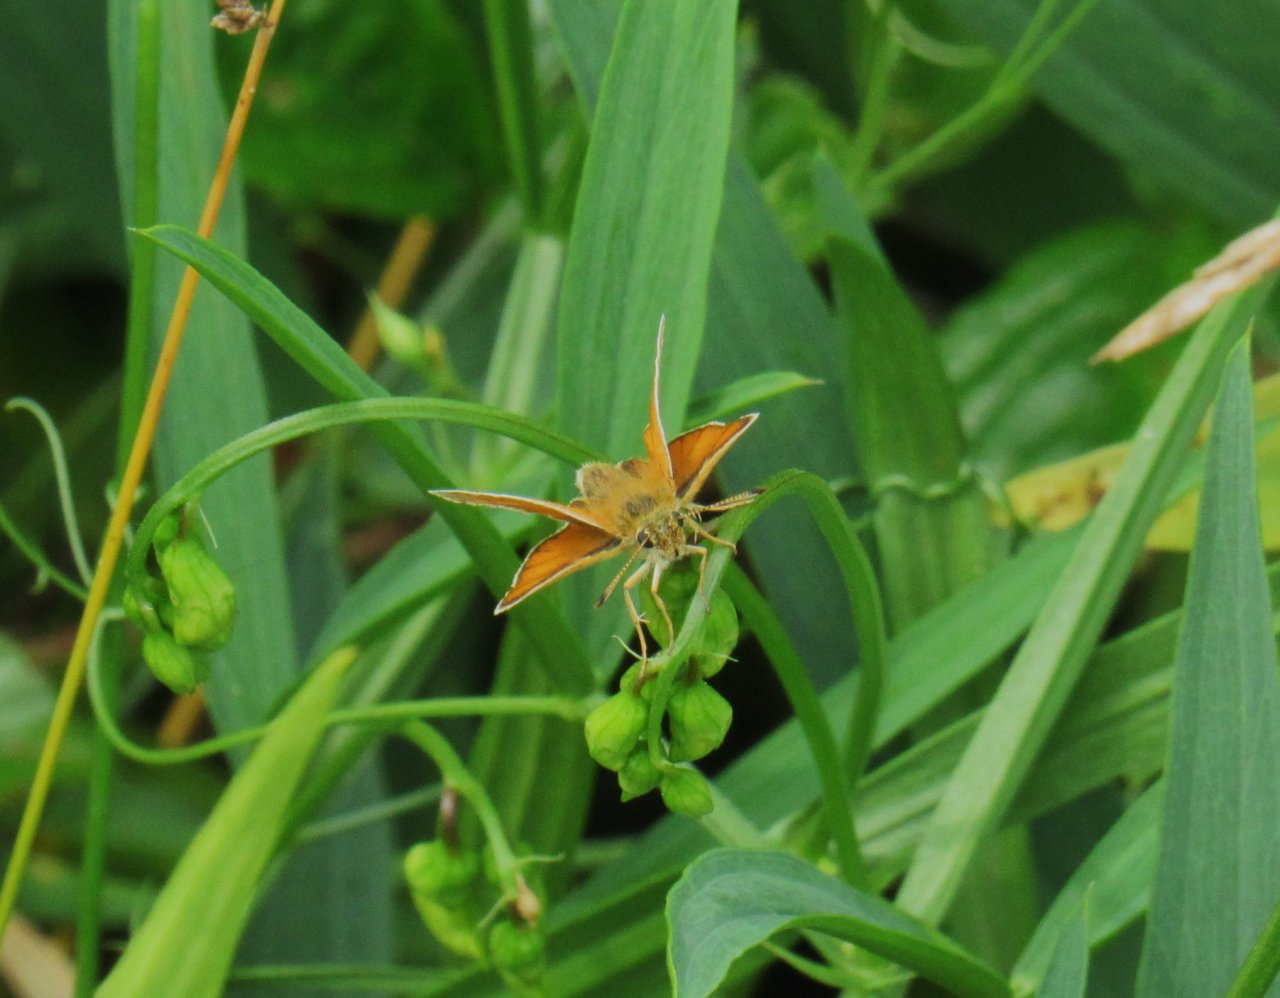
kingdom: Animalia
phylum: Arthropoda
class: Insecta
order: Lepidoptera
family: Hesperiidae
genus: Thymelicus
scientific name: Thymelicus lineola
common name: European Skipper
